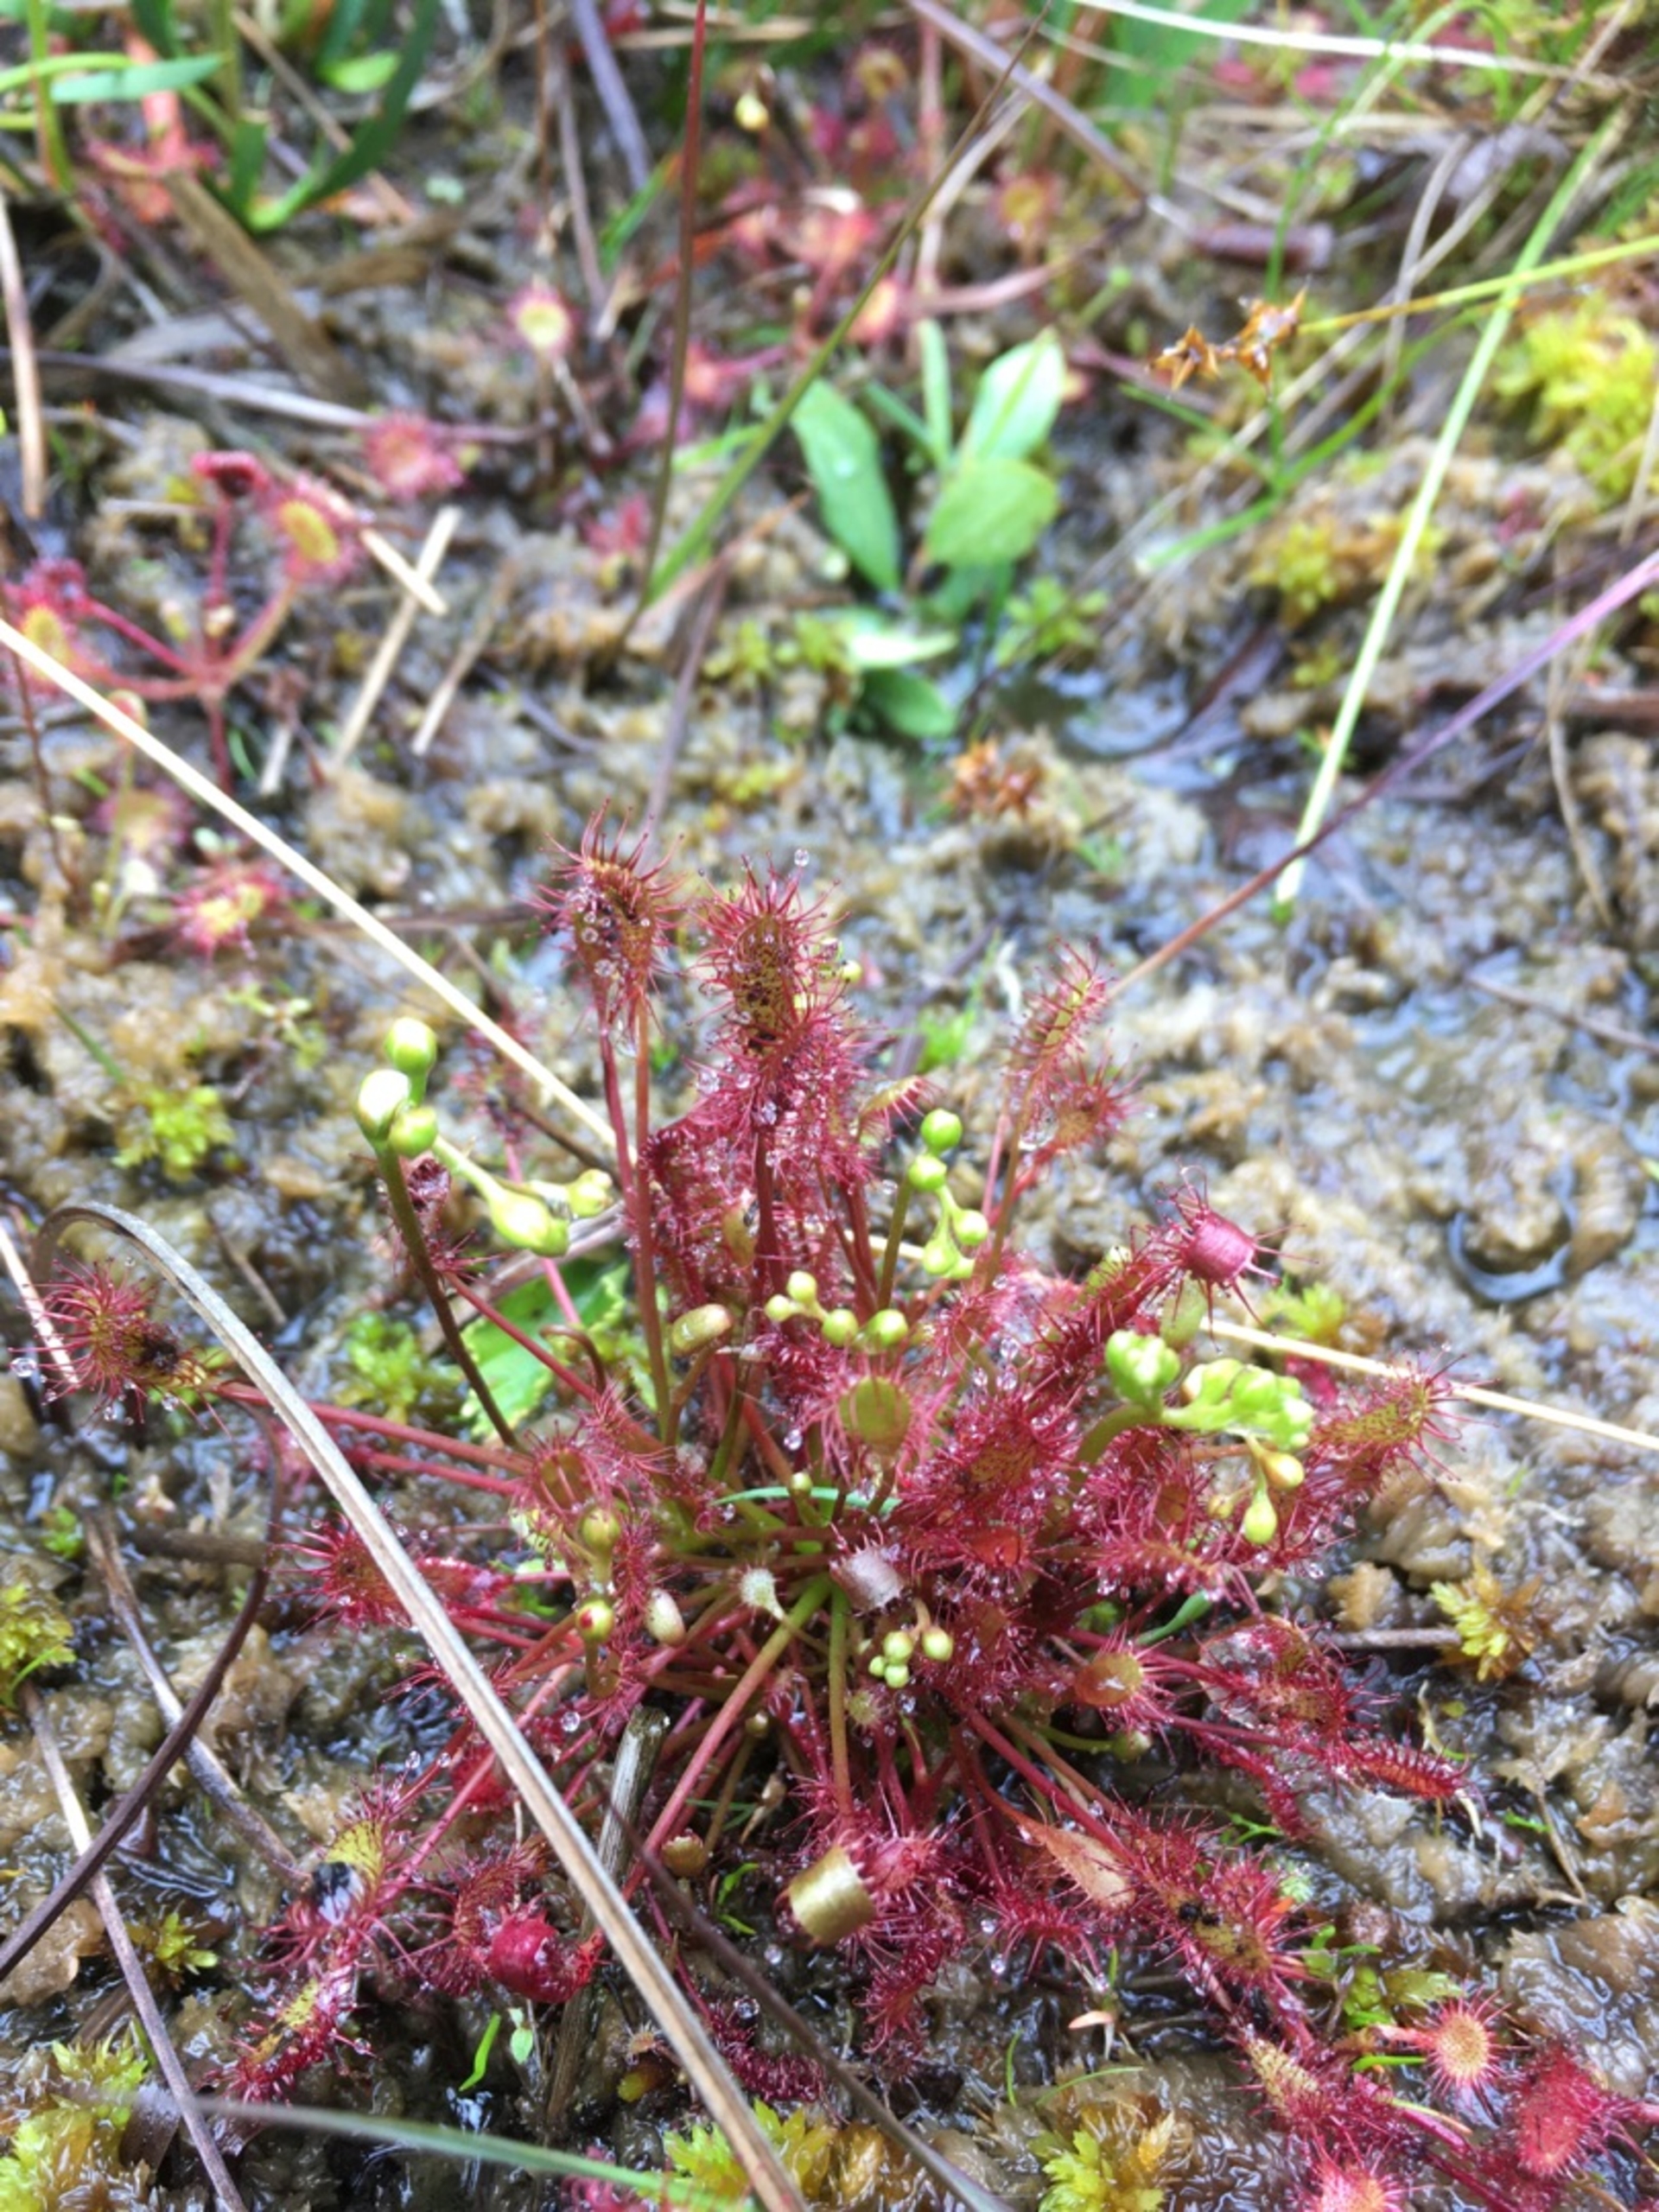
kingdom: Plantae
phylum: Tracheophyta
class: Magnoliopsida
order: Caryophyllales
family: Droseraceae
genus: Drosera
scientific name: Drosera intermedia
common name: Liden soldug
